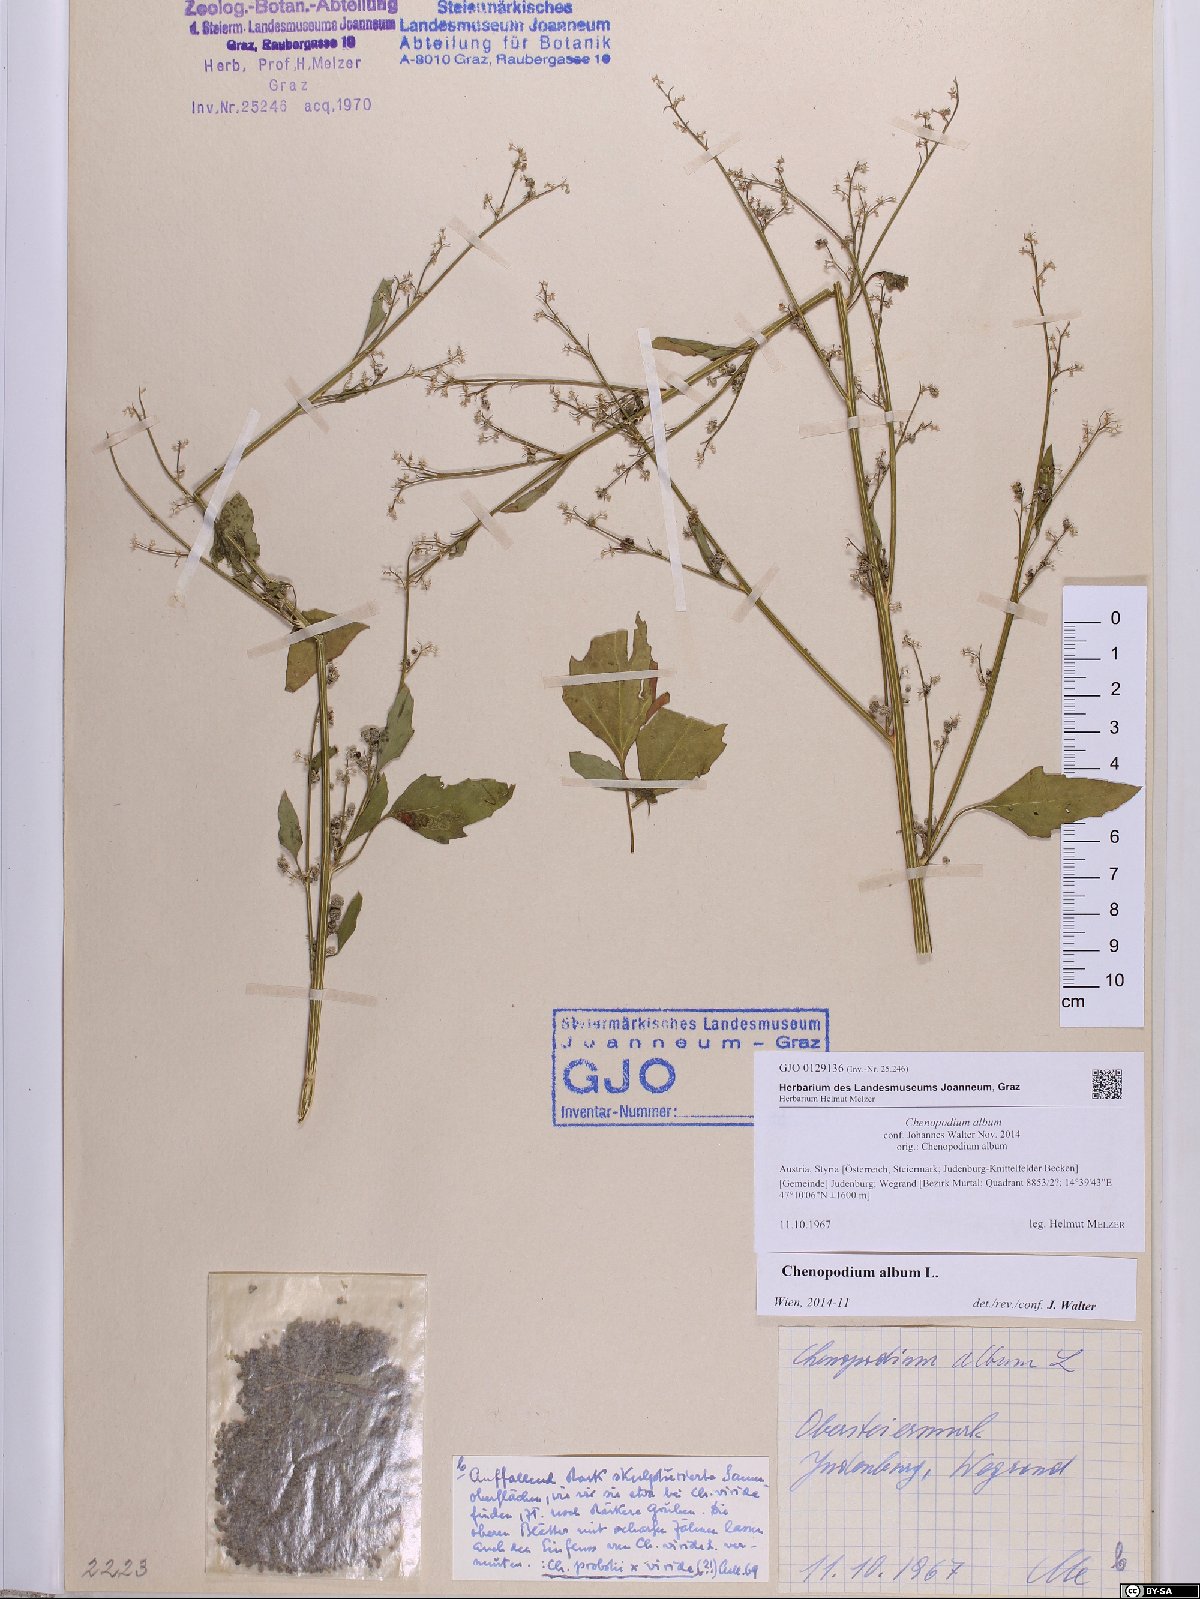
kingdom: Plantae
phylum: Tracheophyta
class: Magnoliopsida
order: Caryophyllales
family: Amaranthaceae
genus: Chenopodium
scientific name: Chenopodium album
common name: Fat-hen
